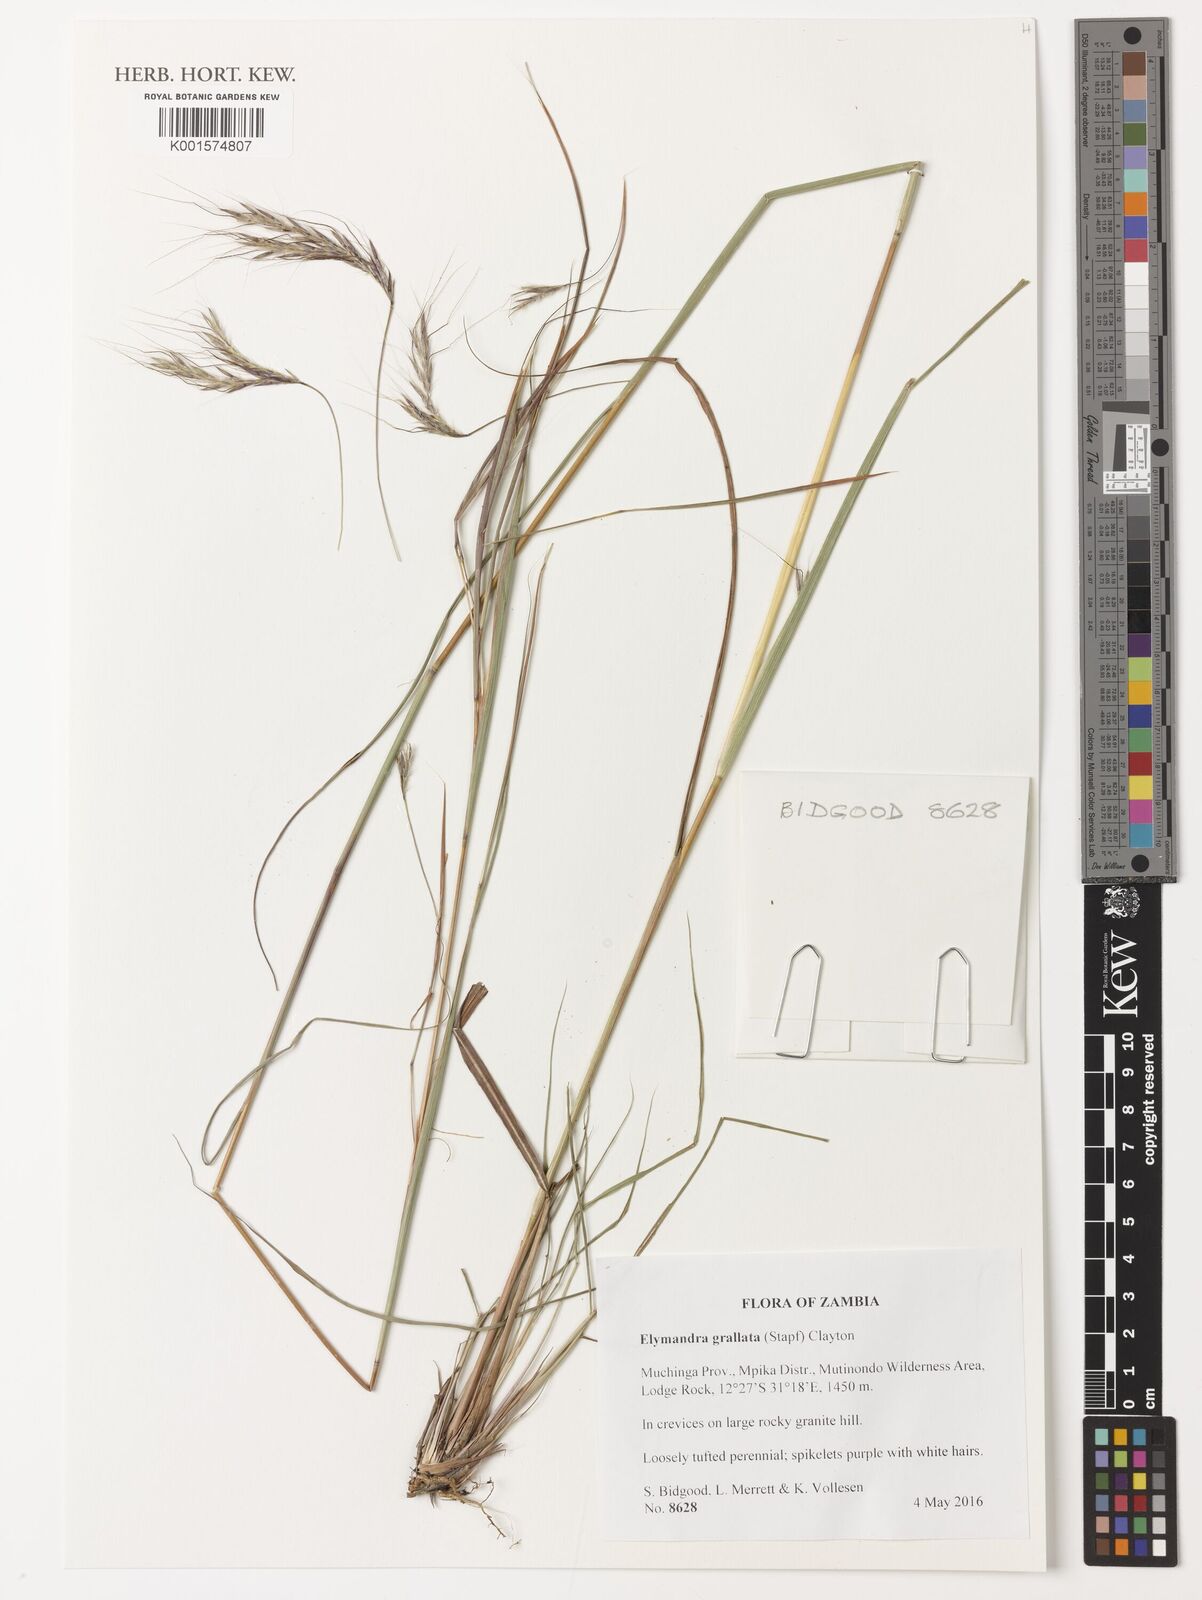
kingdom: Plantae
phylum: Tracheophyta
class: Liliopsida
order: Poales
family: Poaceae
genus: Elymandra
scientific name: Elymandra grallata
